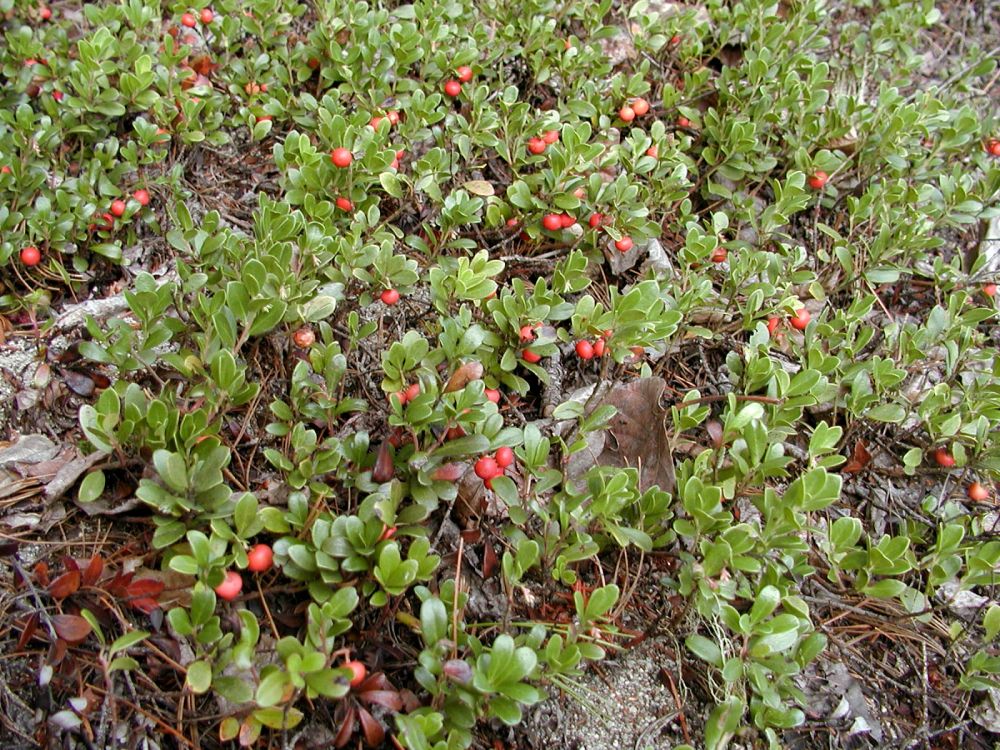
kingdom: Plantae
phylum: Tracheophyta
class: Magnoliopsida
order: Ericales
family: Ericaceae
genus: Arctostaphylos
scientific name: Arctostaphylos uva-ursi
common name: Bearberry
